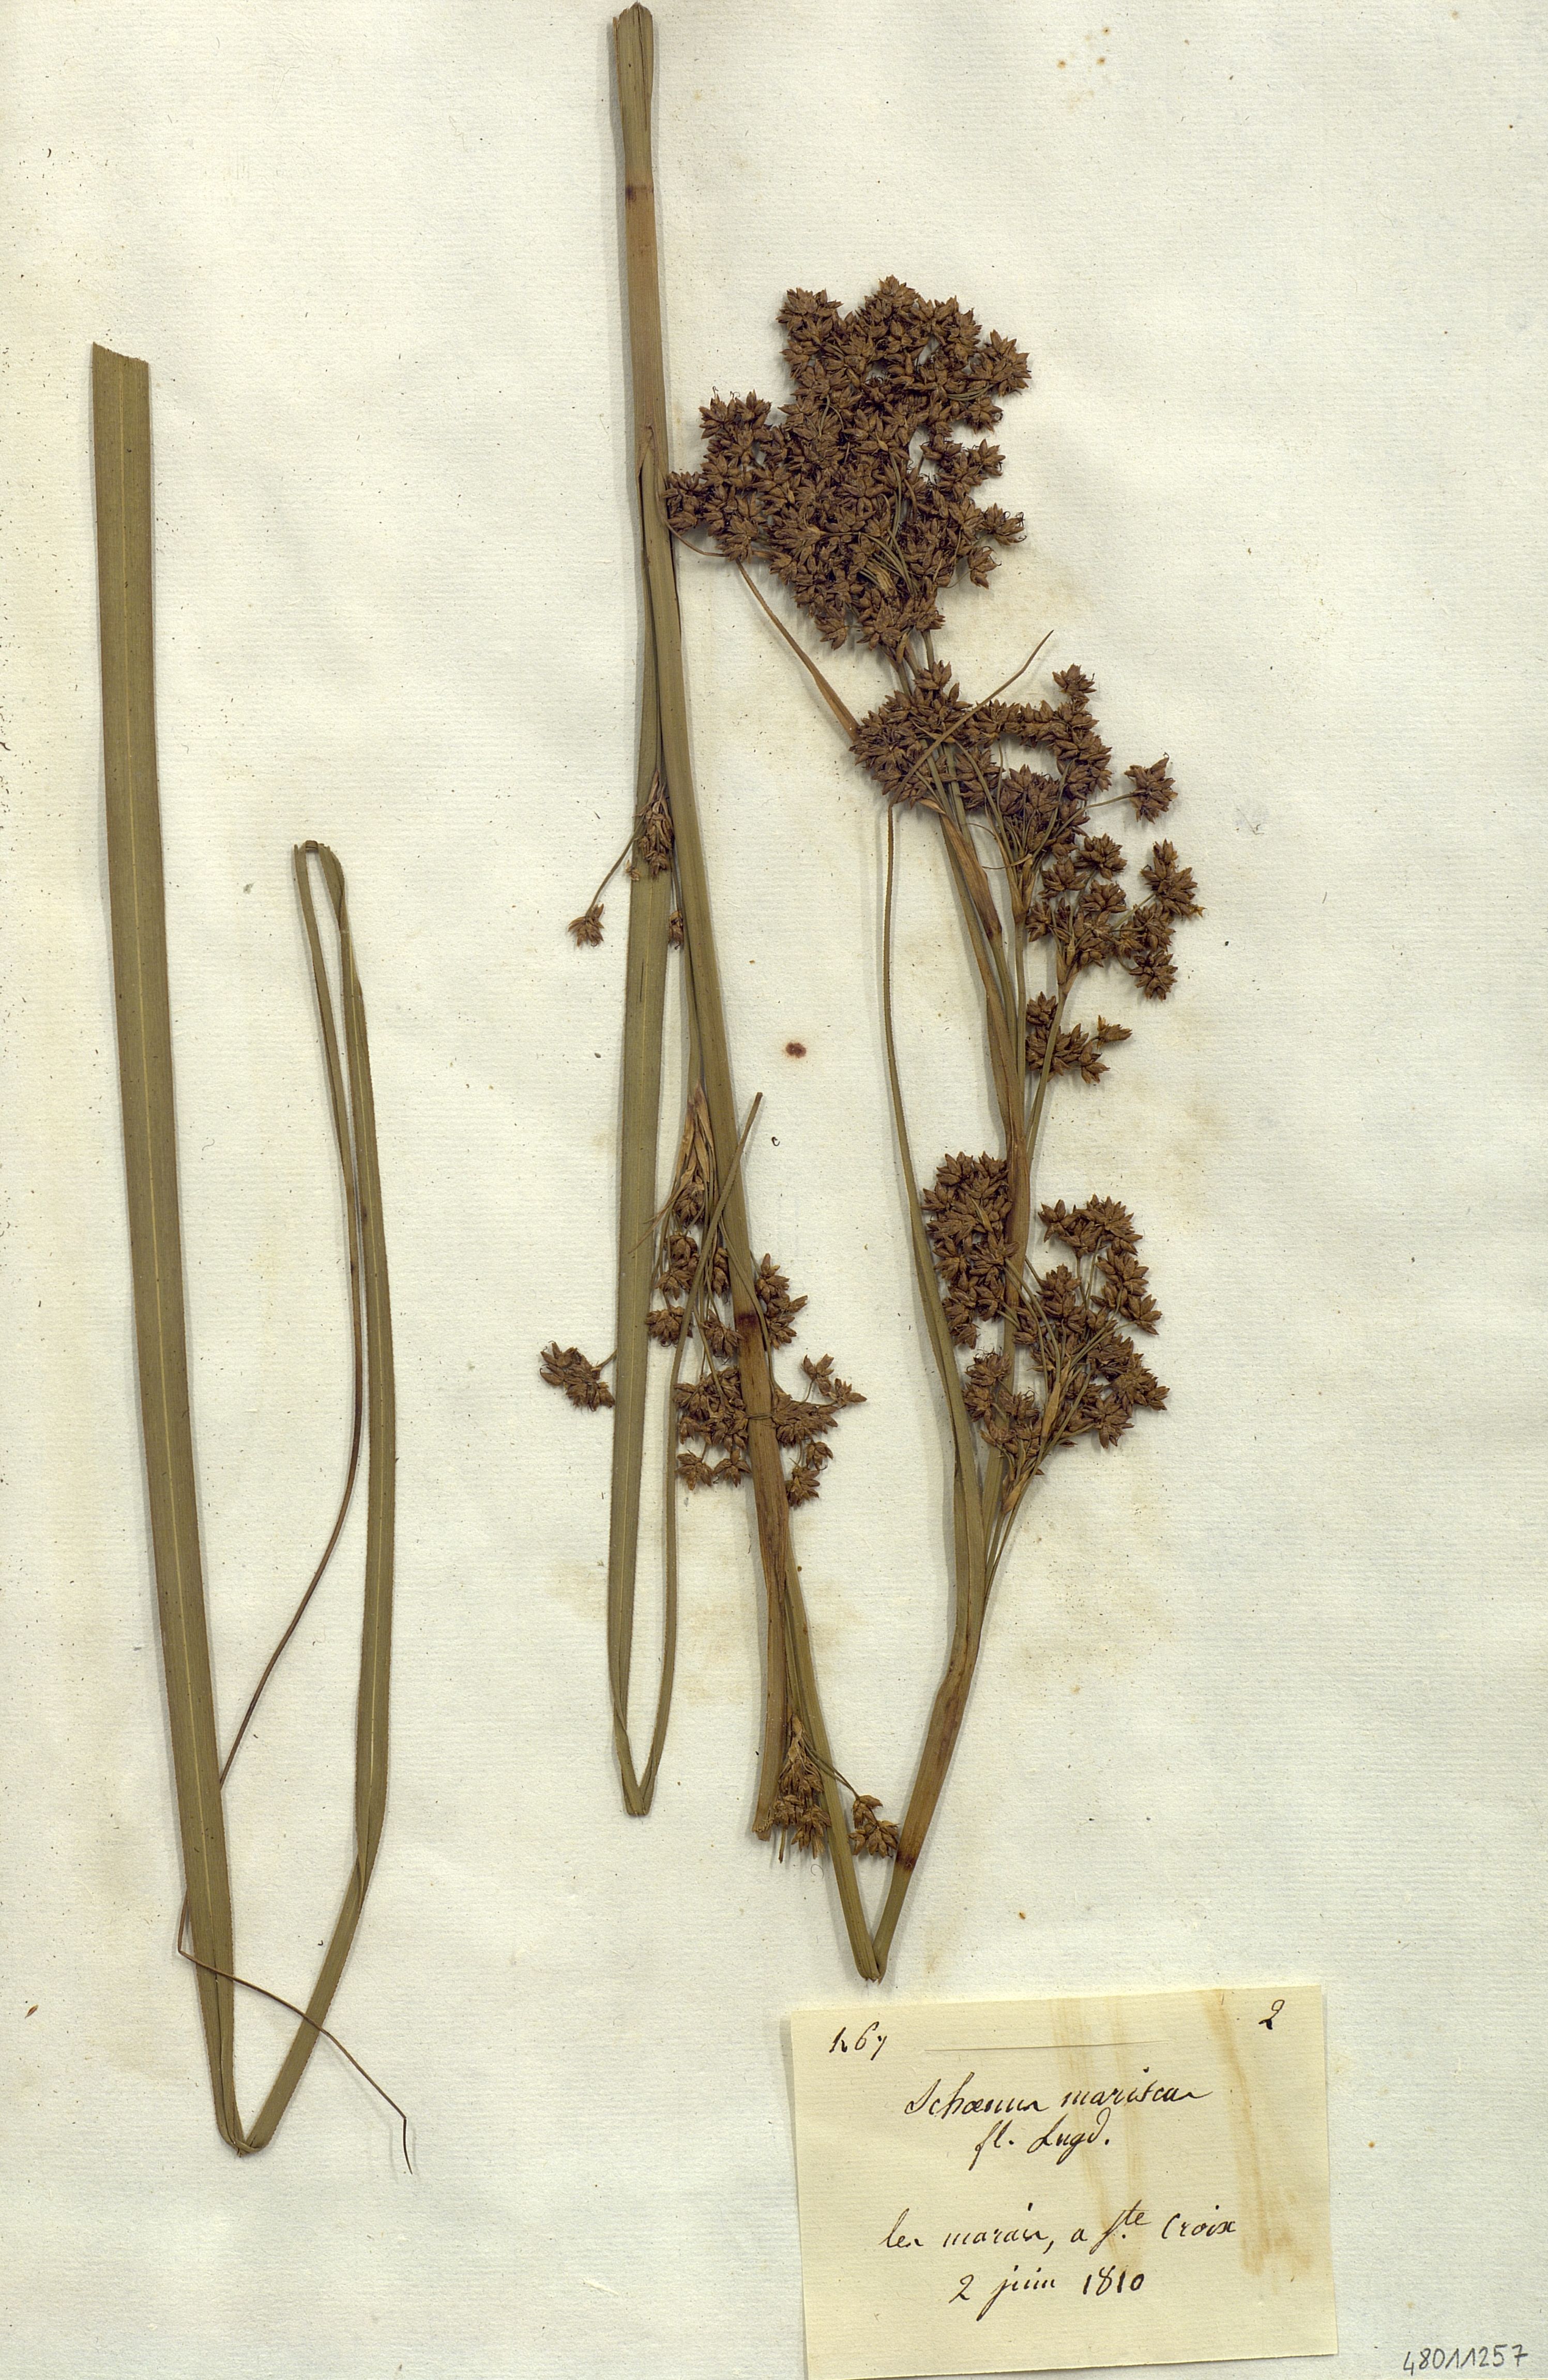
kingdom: Plantae
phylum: Tracheophyta
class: Liliopsida
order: Poales
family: Cyperaceae
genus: Cladium
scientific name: Cladium mariscus
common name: Great fen-sedge
